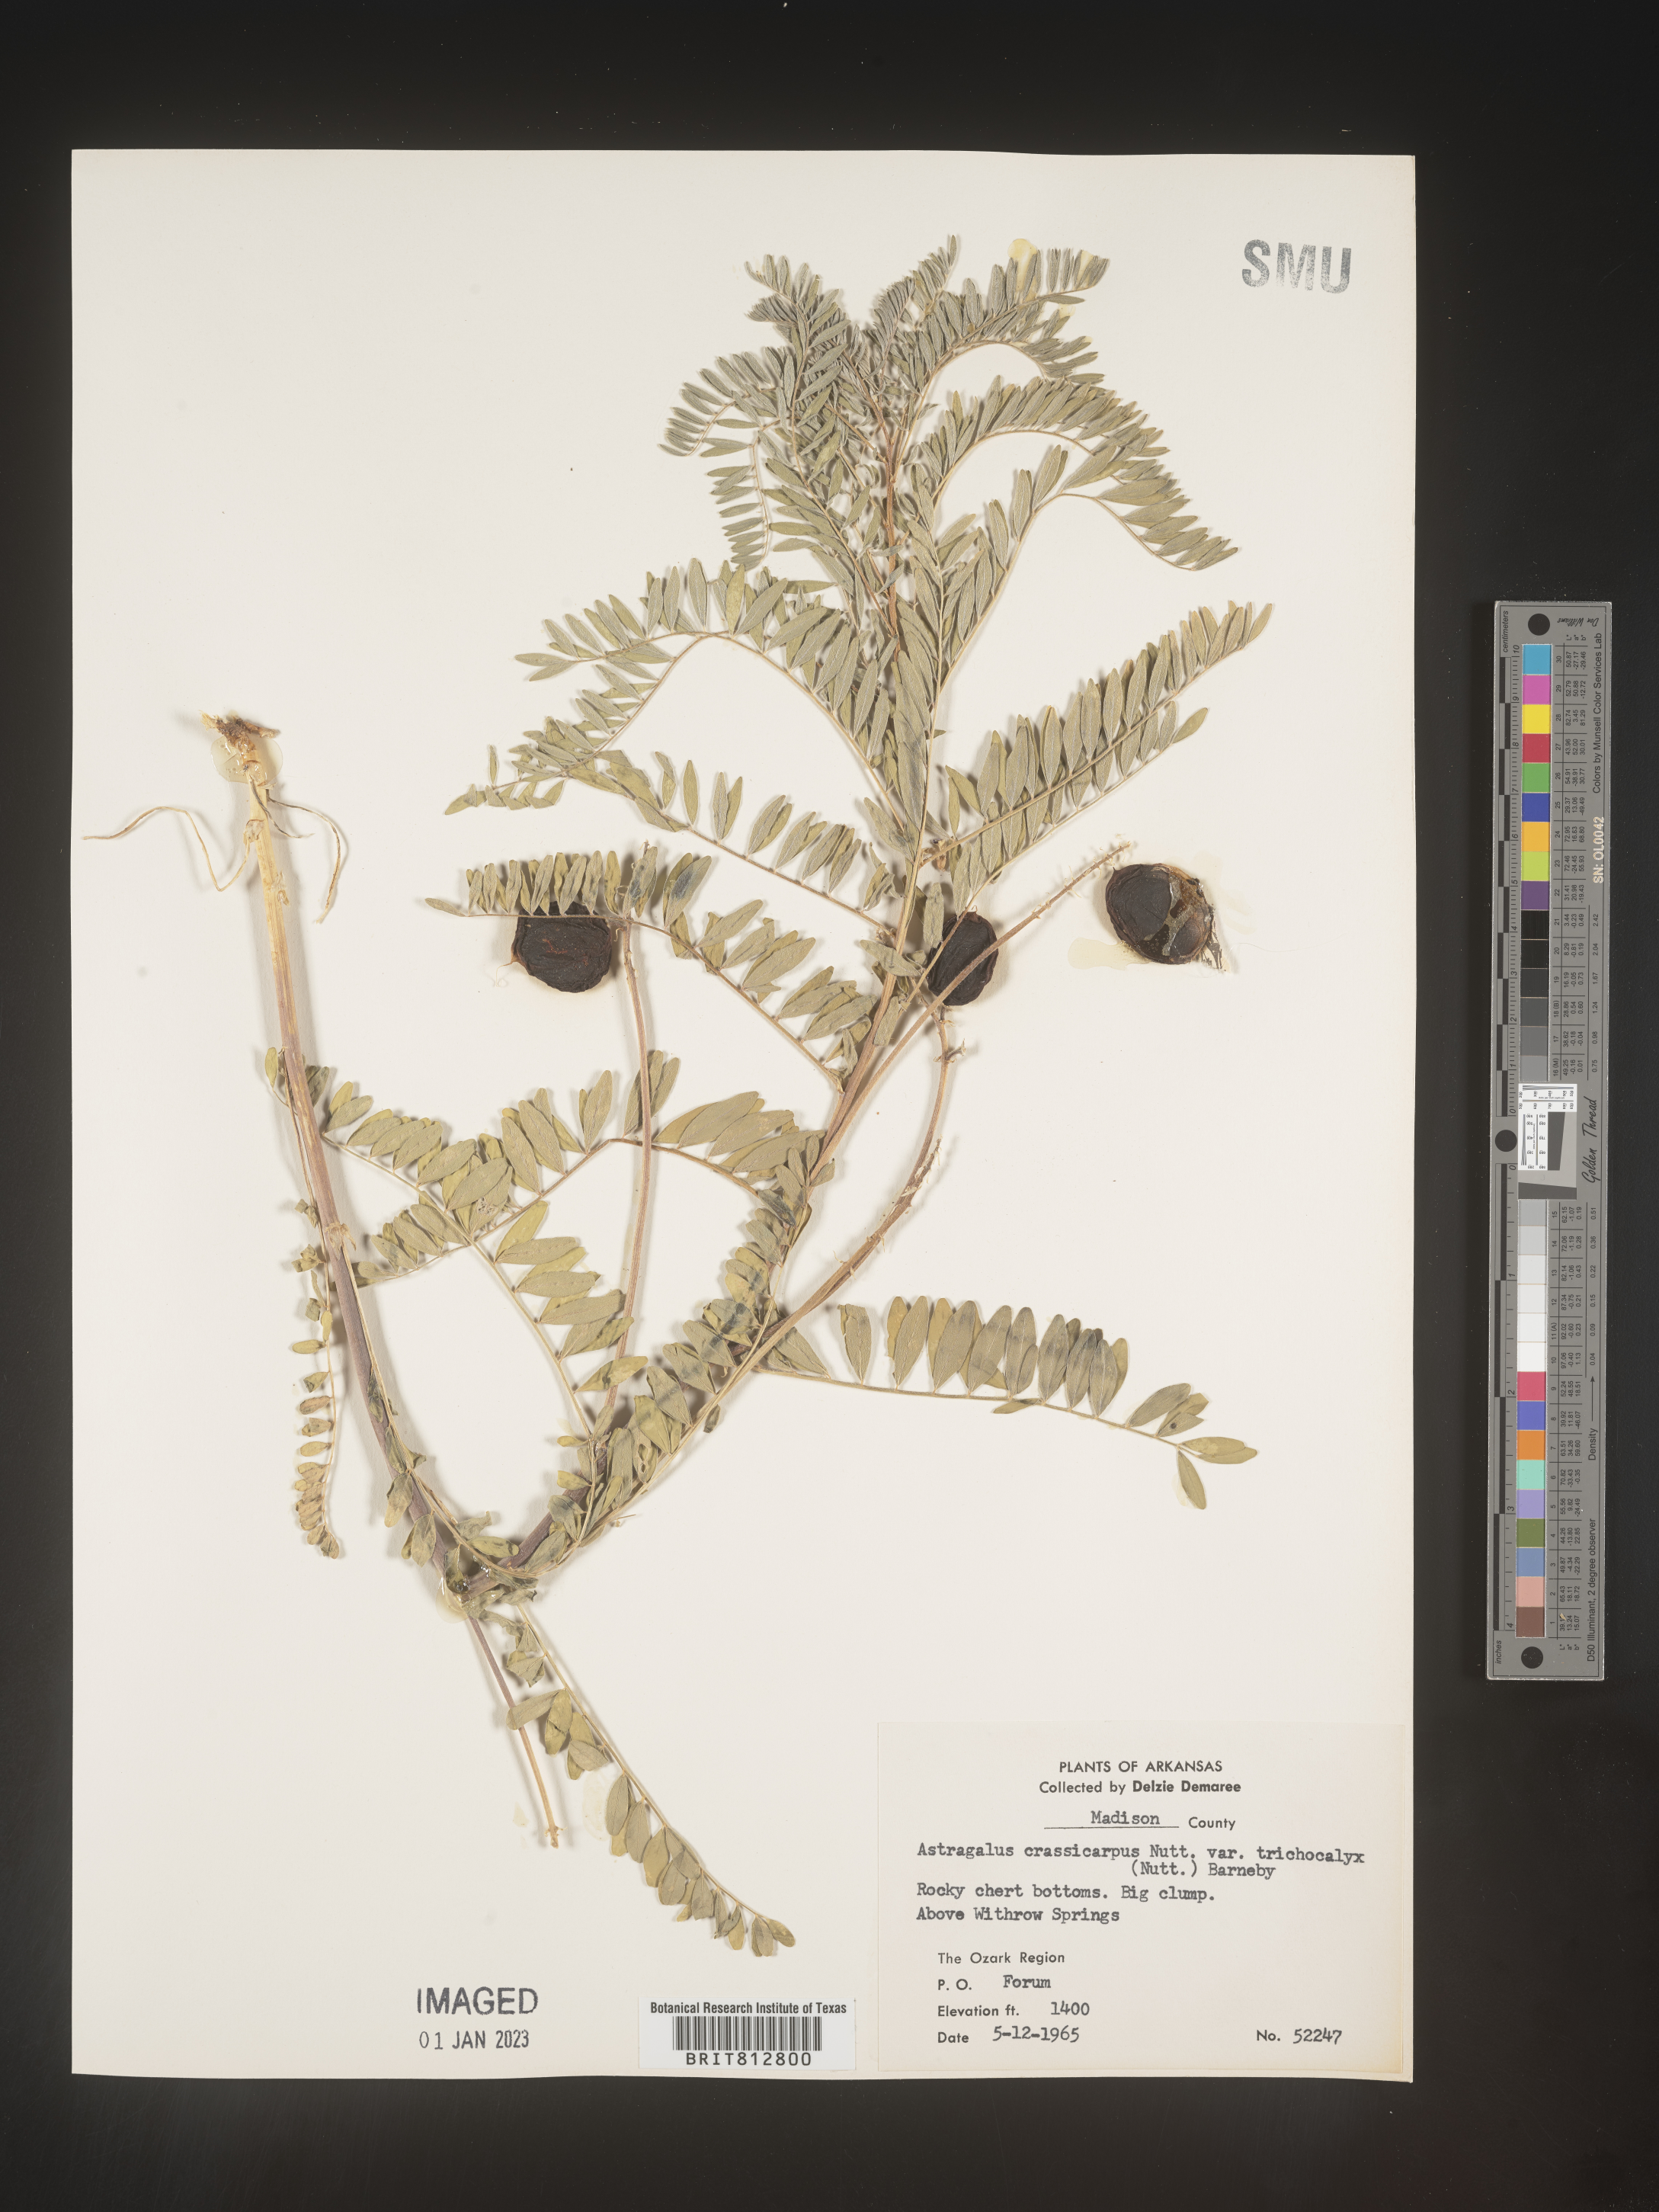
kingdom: Plantae
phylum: Tracheophyta
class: Magnoliopsida
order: Fabales
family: Fabaceae
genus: Astragalus
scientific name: Astragalus petropolitanus
